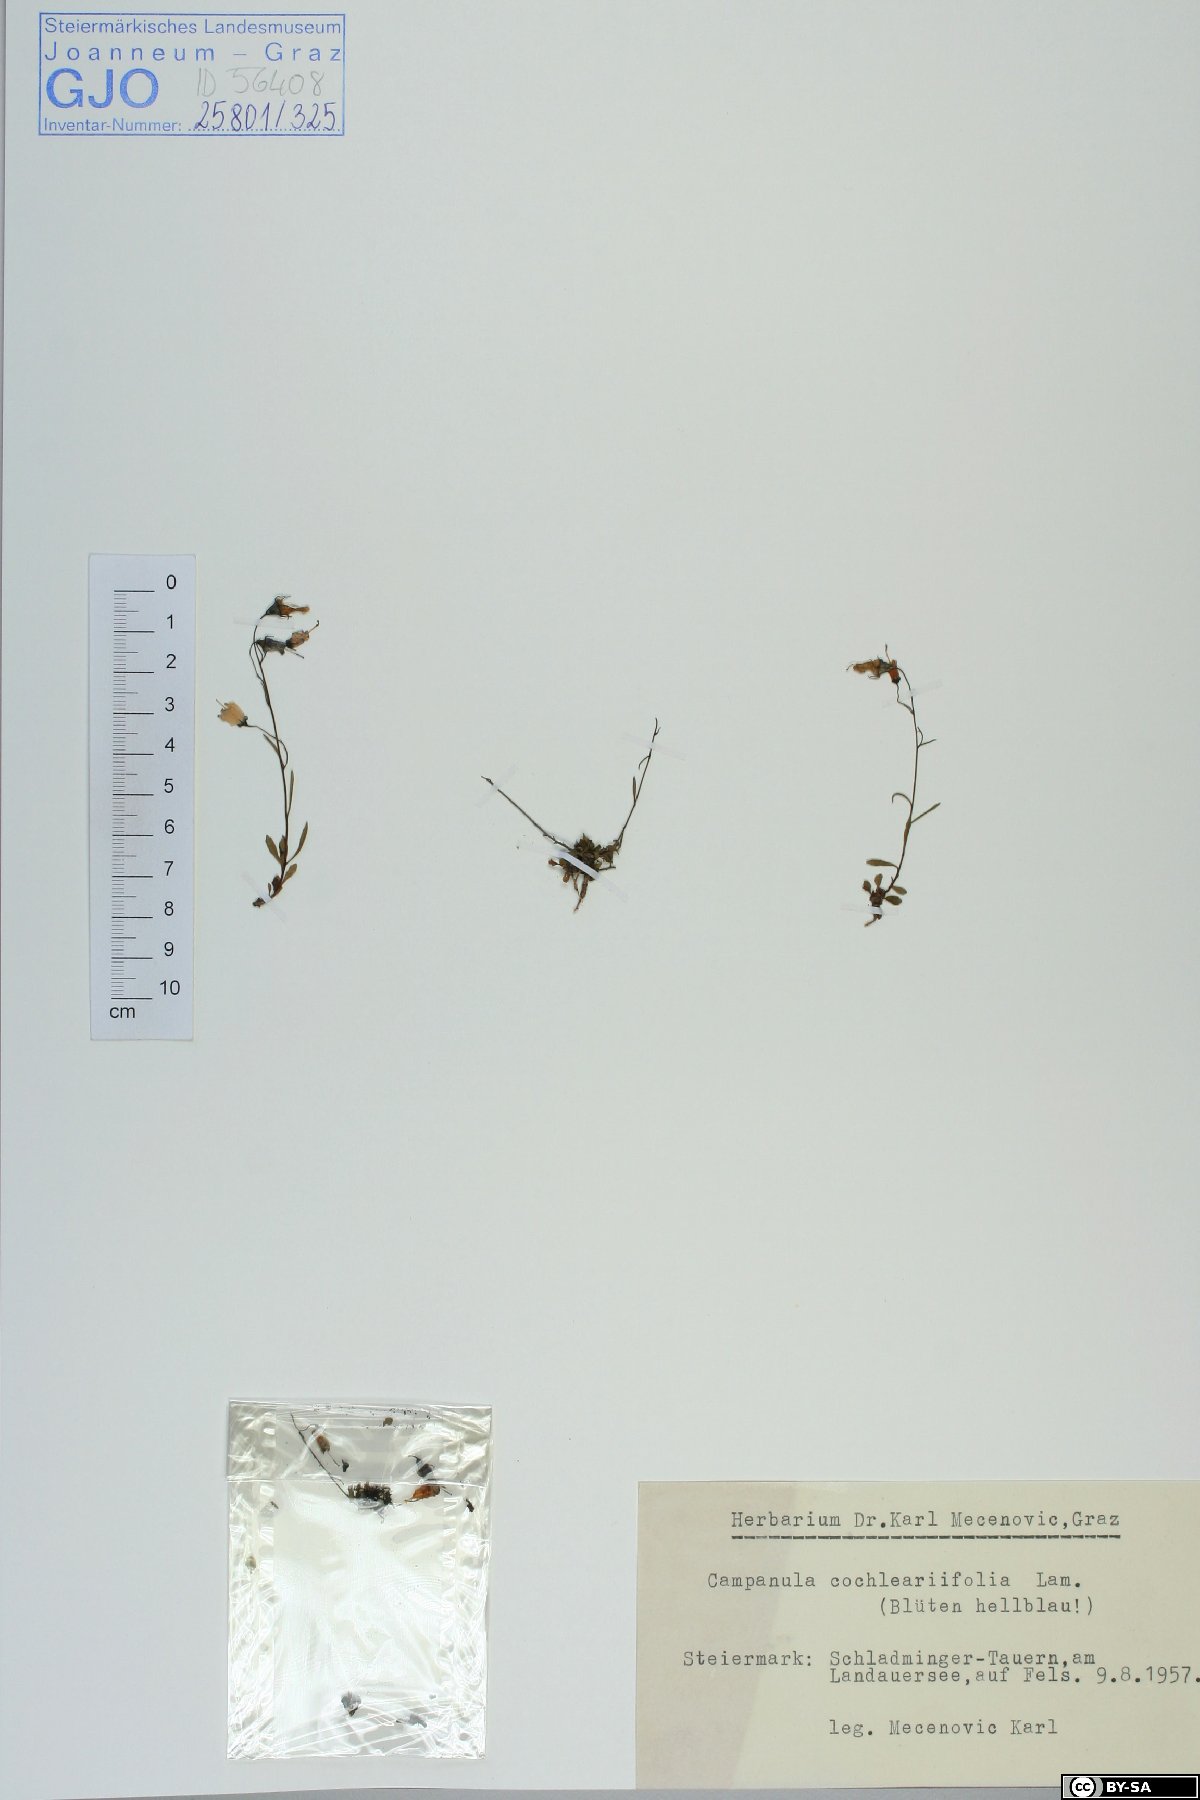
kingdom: Plantae
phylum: Tracheophyta
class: Magnoliopsida
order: Asterales
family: Campanulaceae
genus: Campanula
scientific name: Campanula cochleariifolia
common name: Fairies'-thimbles
